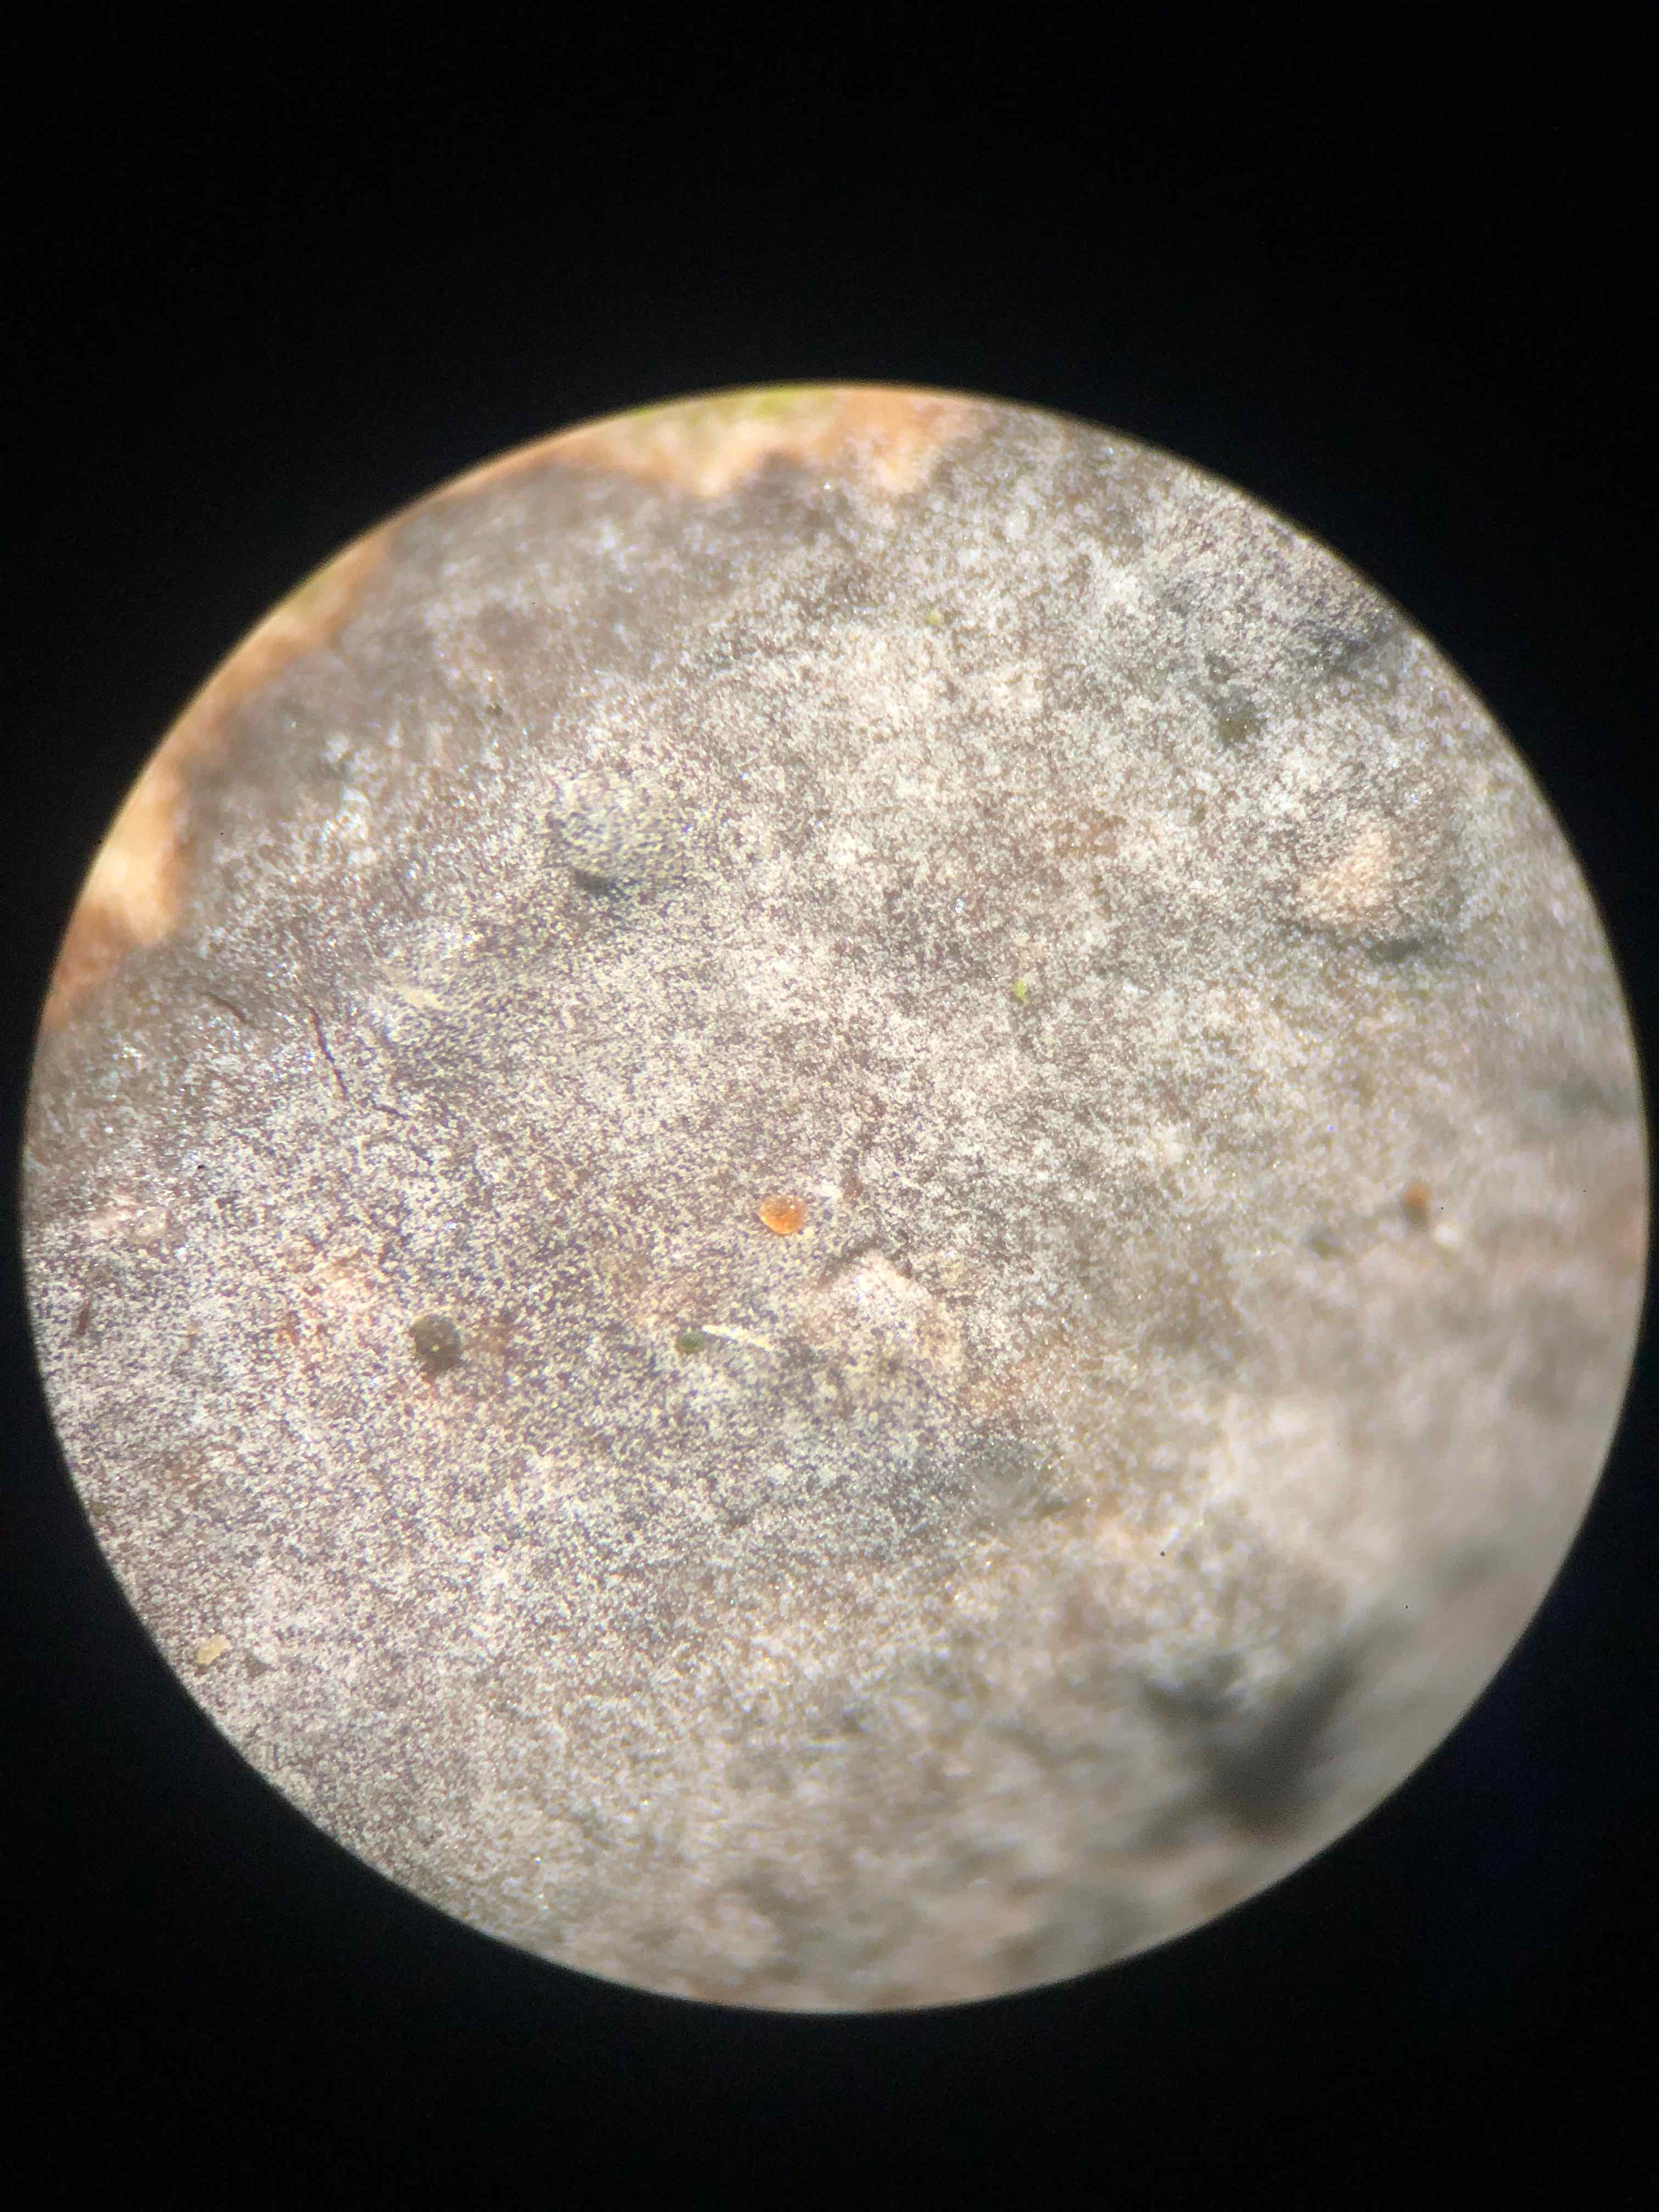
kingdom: Fungi
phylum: Basidiomycota
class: Tremellomycetes
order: Tremellales
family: Tremellaceae
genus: Tremella
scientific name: Tremella versicolor
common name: voksskind-bævresvamp
